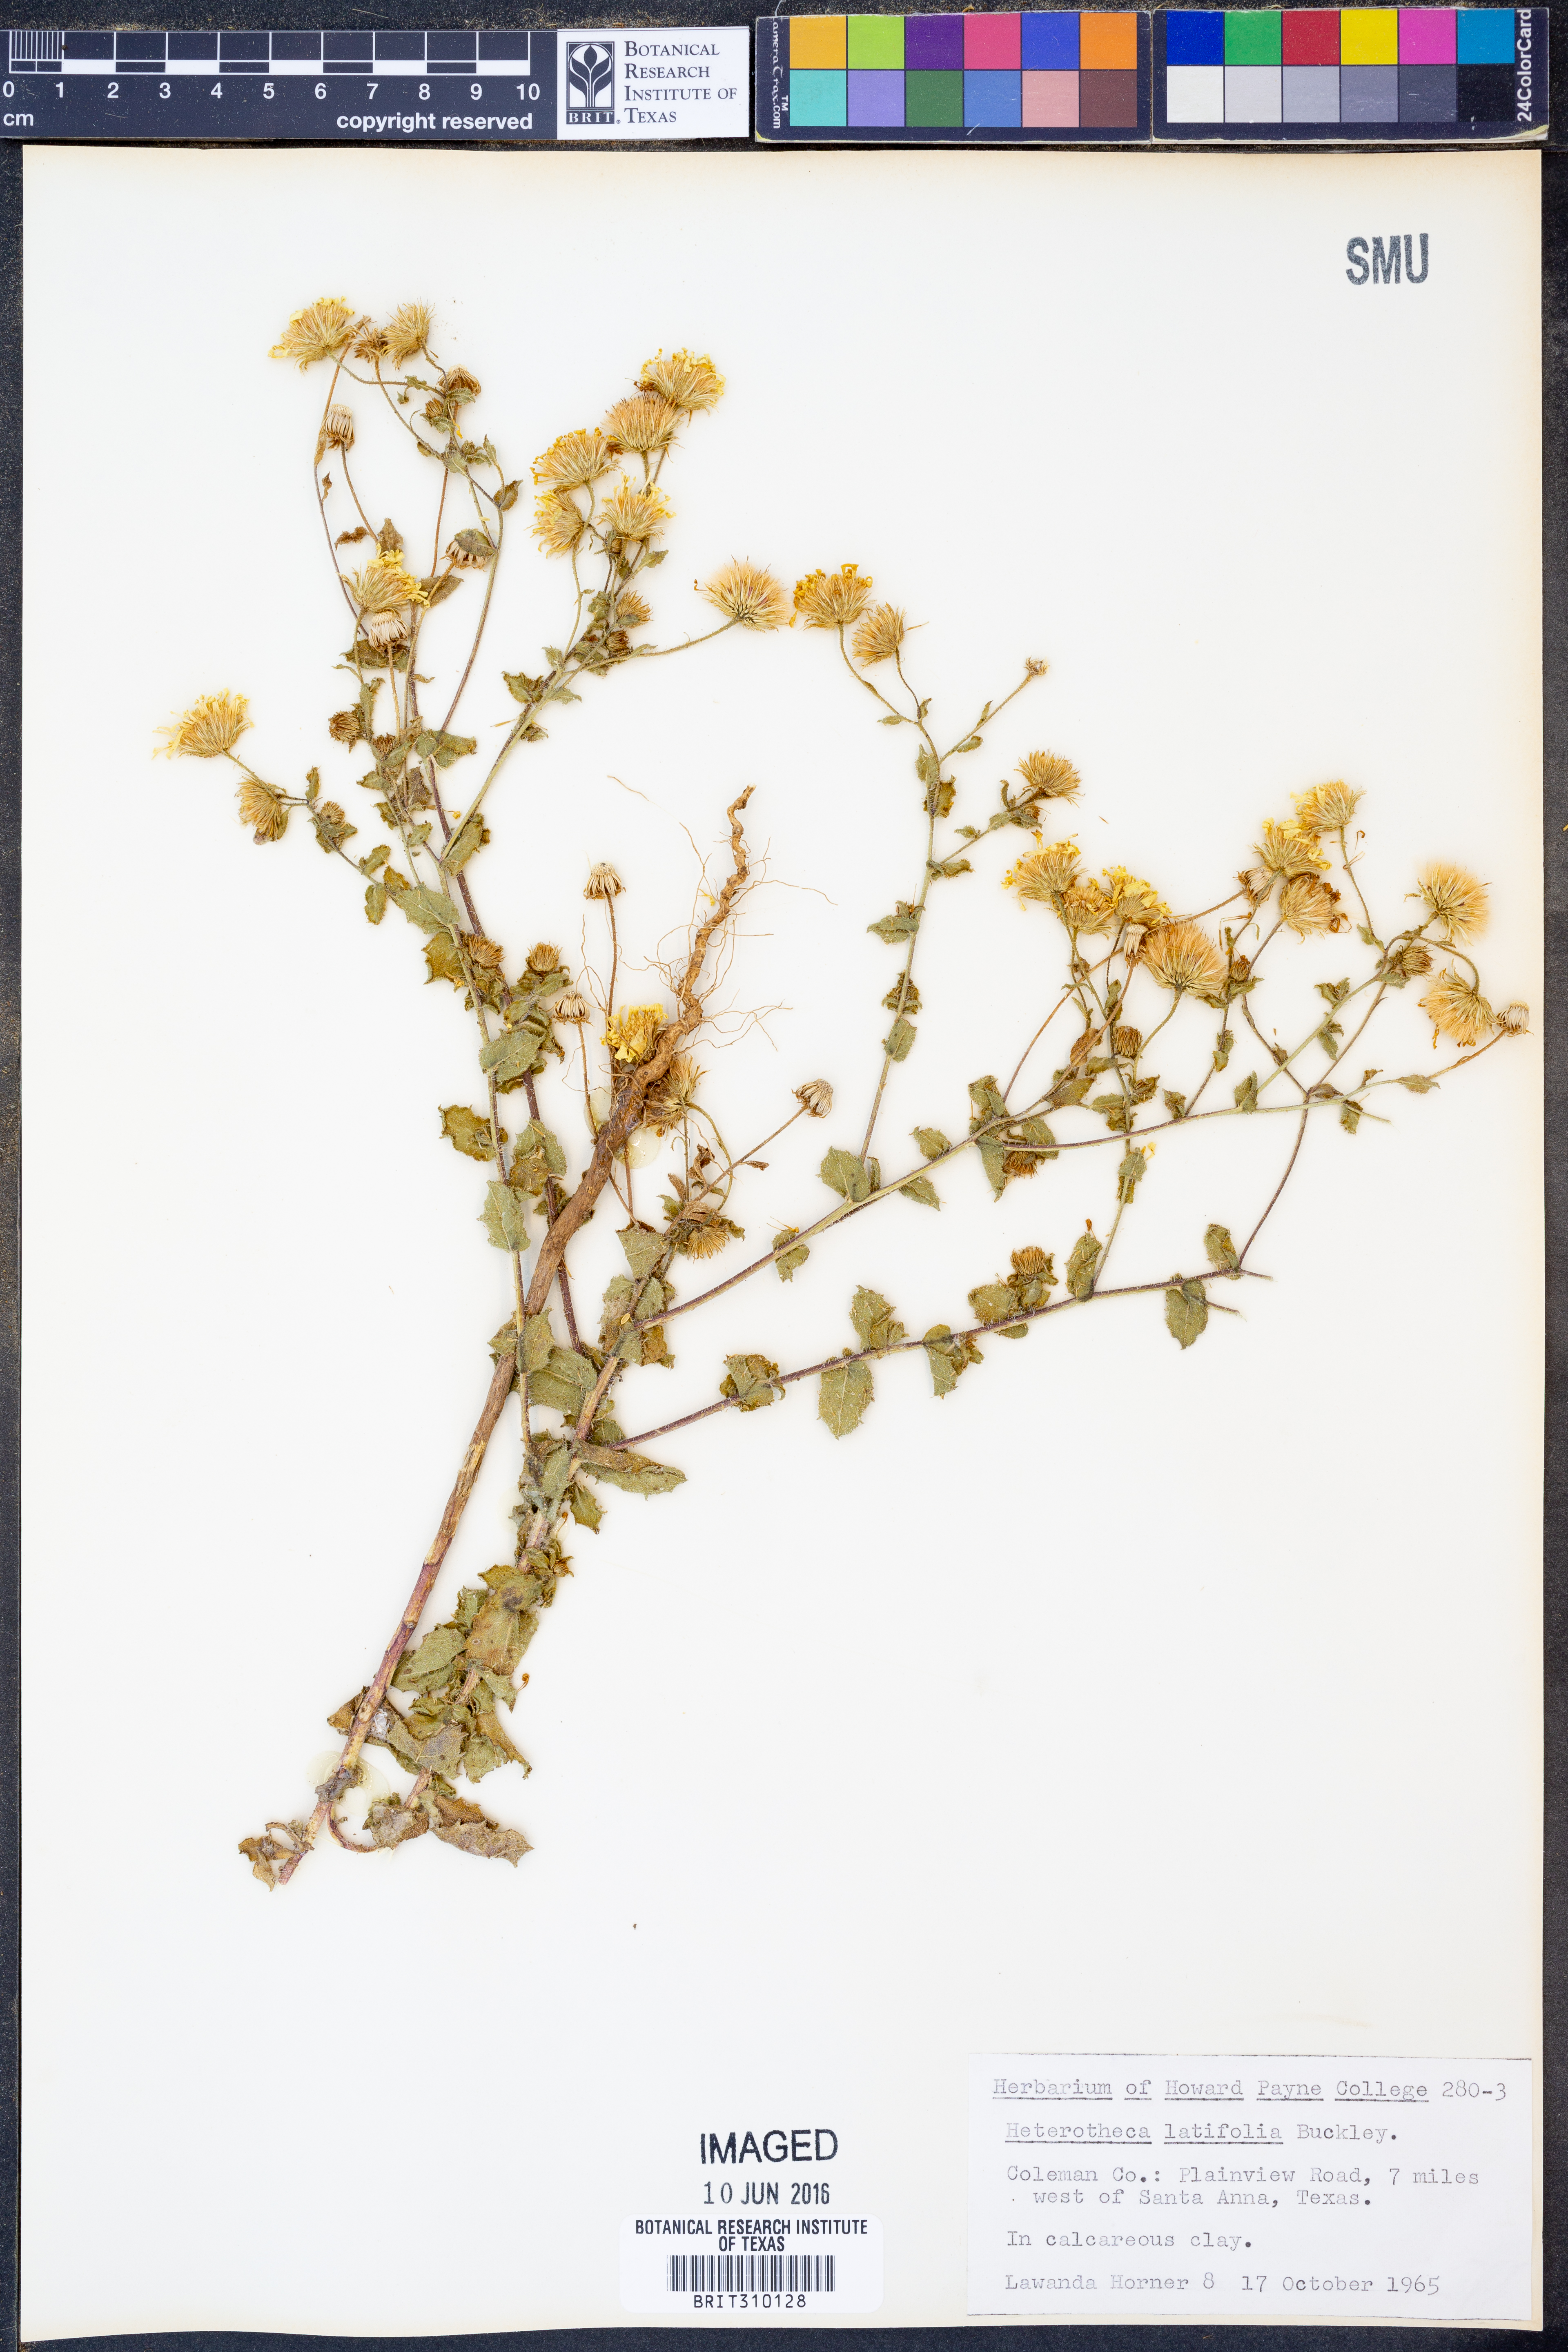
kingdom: Plantae
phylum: Tracheophyta
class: Magnoliopsida
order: Asterales
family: Asteraceae
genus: Heterotheca
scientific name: Heterotheca subaxillaris
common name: Camphorweed
